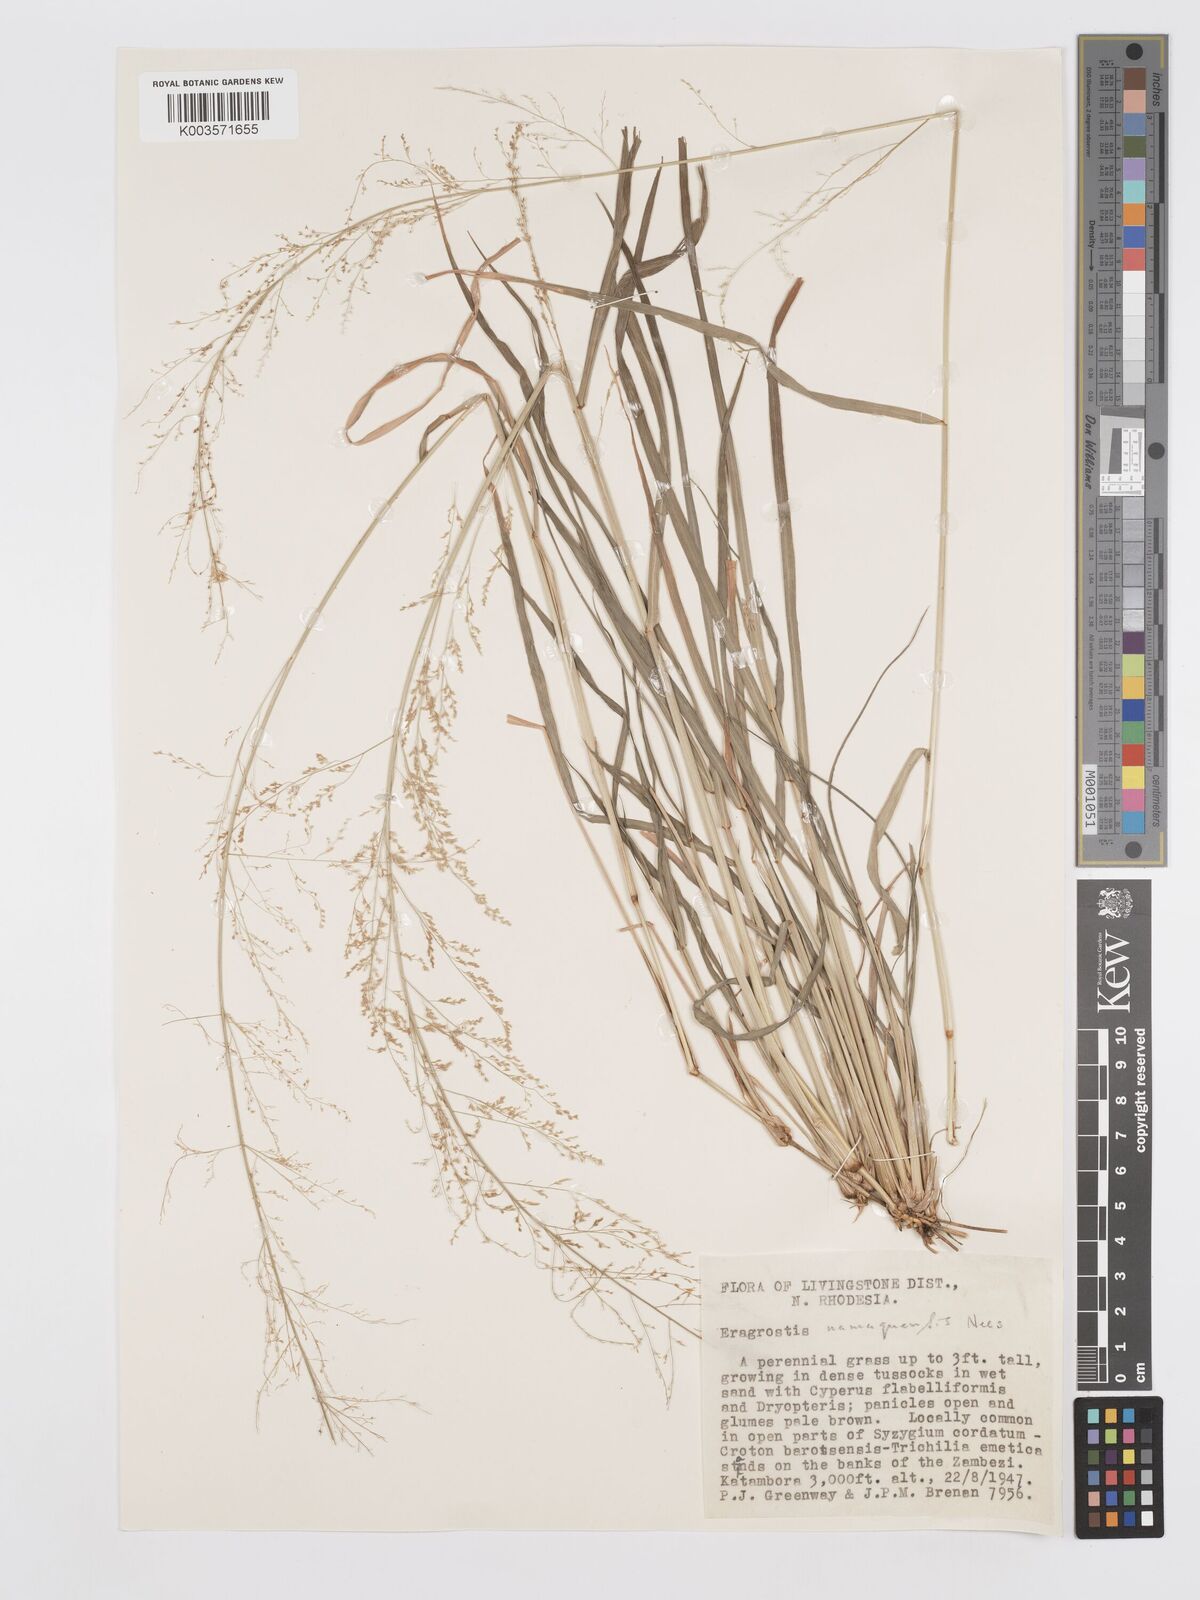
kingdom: Plantae
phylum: Tracheophyta
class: Liliopsida
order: Poales
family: Poaceae
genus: Eragrostis
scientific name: Eragrostis japonica
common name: Pond lovegrass
